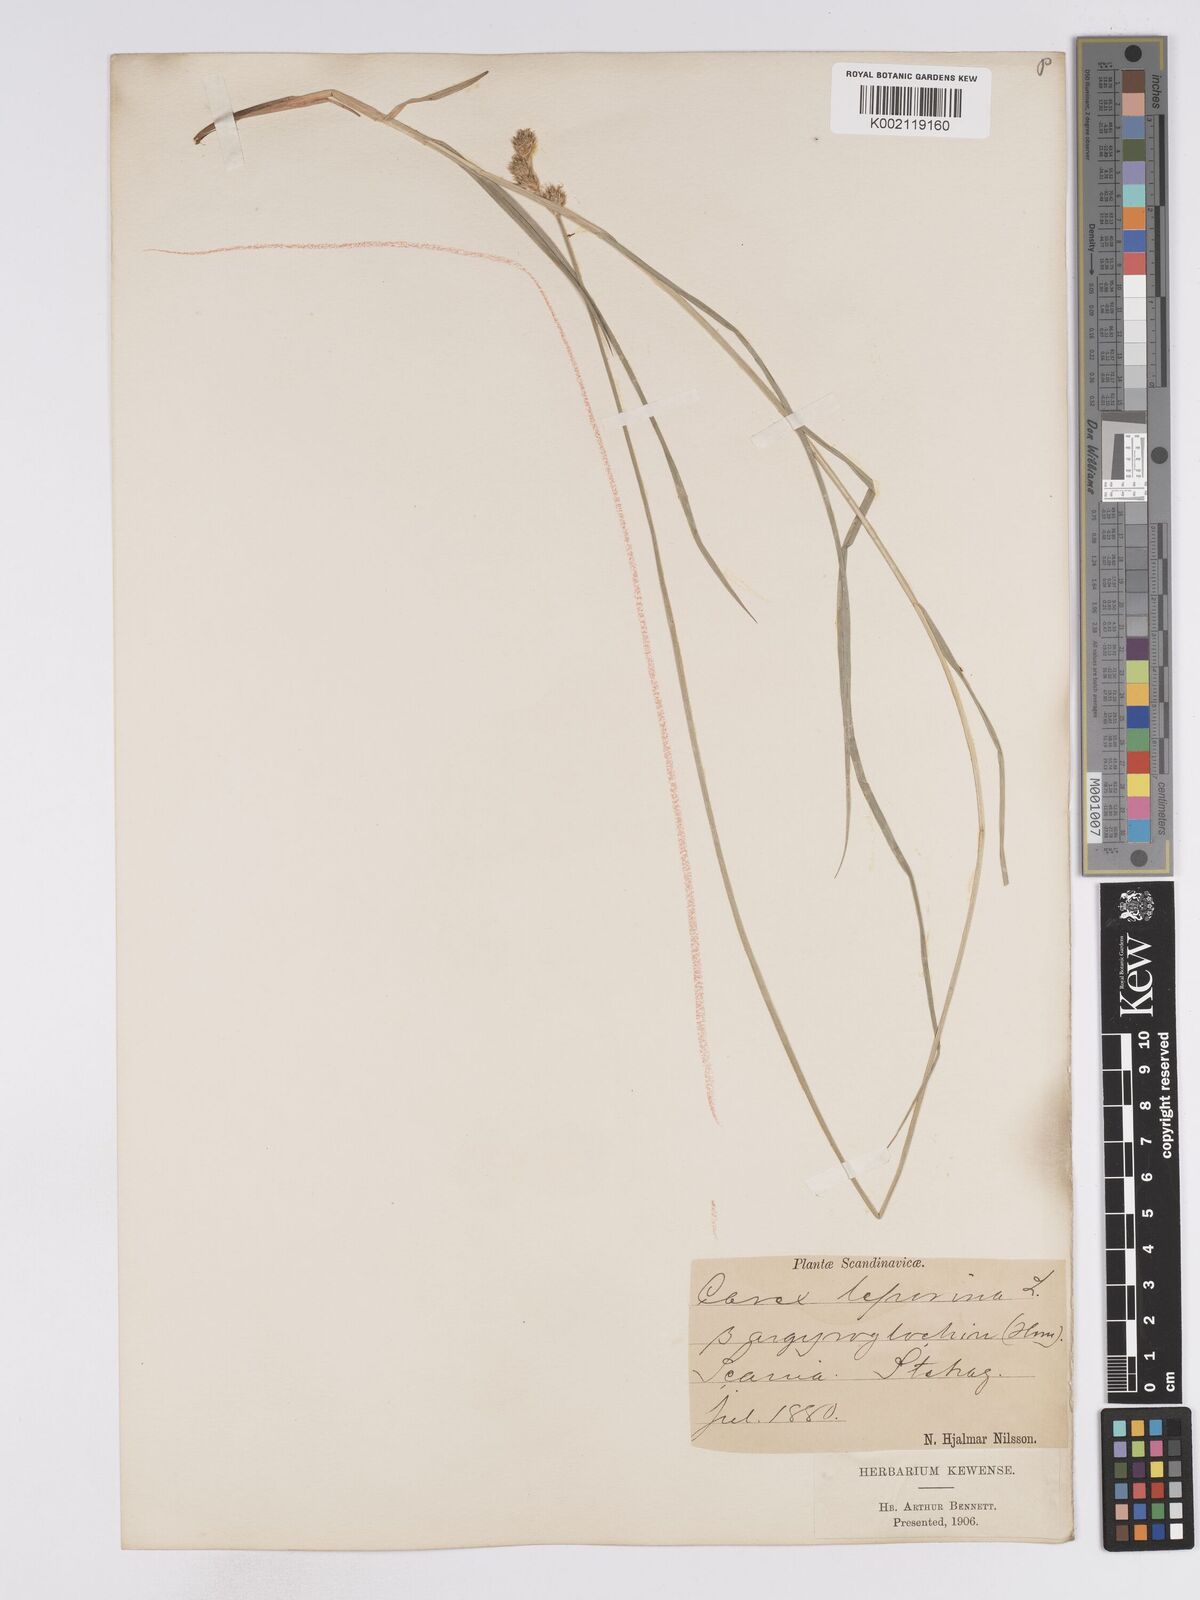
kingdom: Plantae
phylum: Tracheophyta
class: Liliopsida
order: Poales
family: Cyperaceae
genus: Carex
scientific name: Carex leporina
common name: Oval sedge
